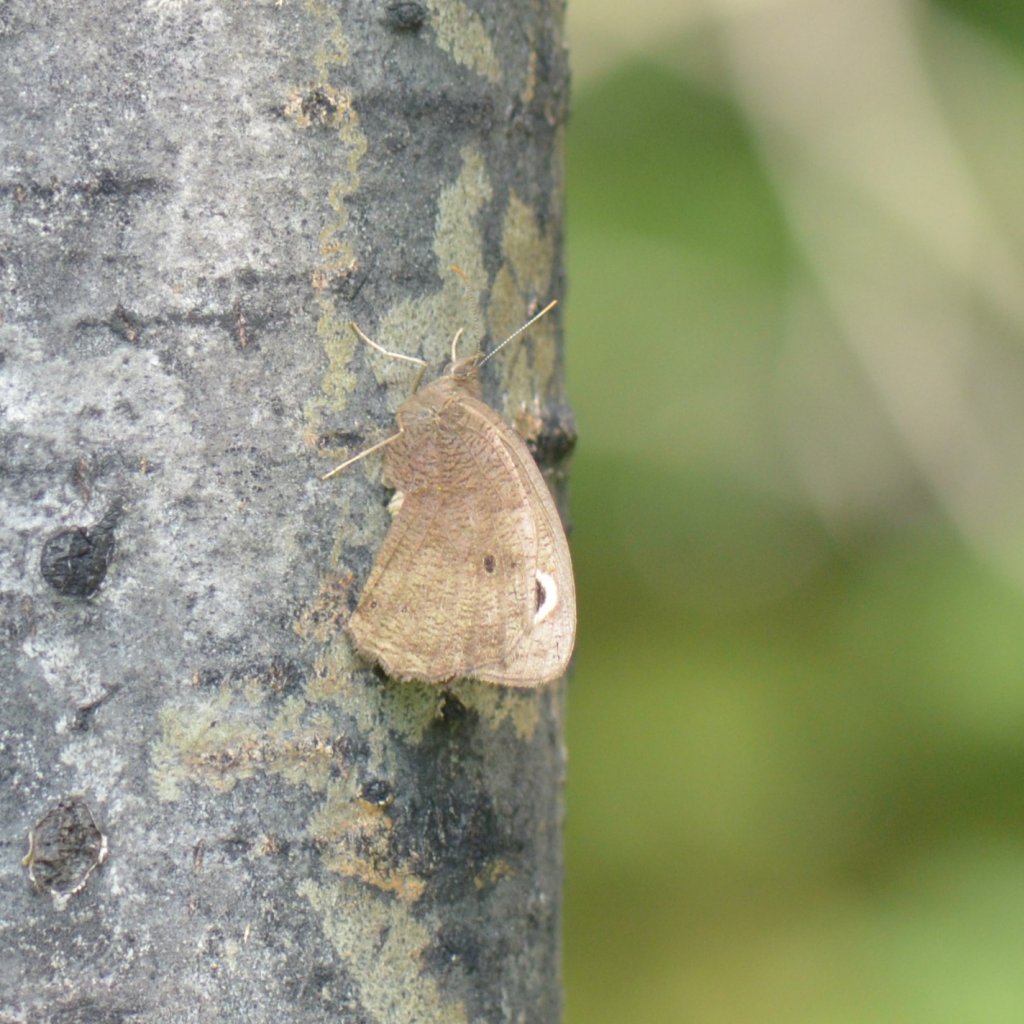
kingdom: Animalia
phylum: Arthropoda
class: Insecta
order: Lepidoptera
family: Nymphalidae
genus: Cercyonis
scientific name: Cercyonis pegala
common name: Common Wood-Nymph
